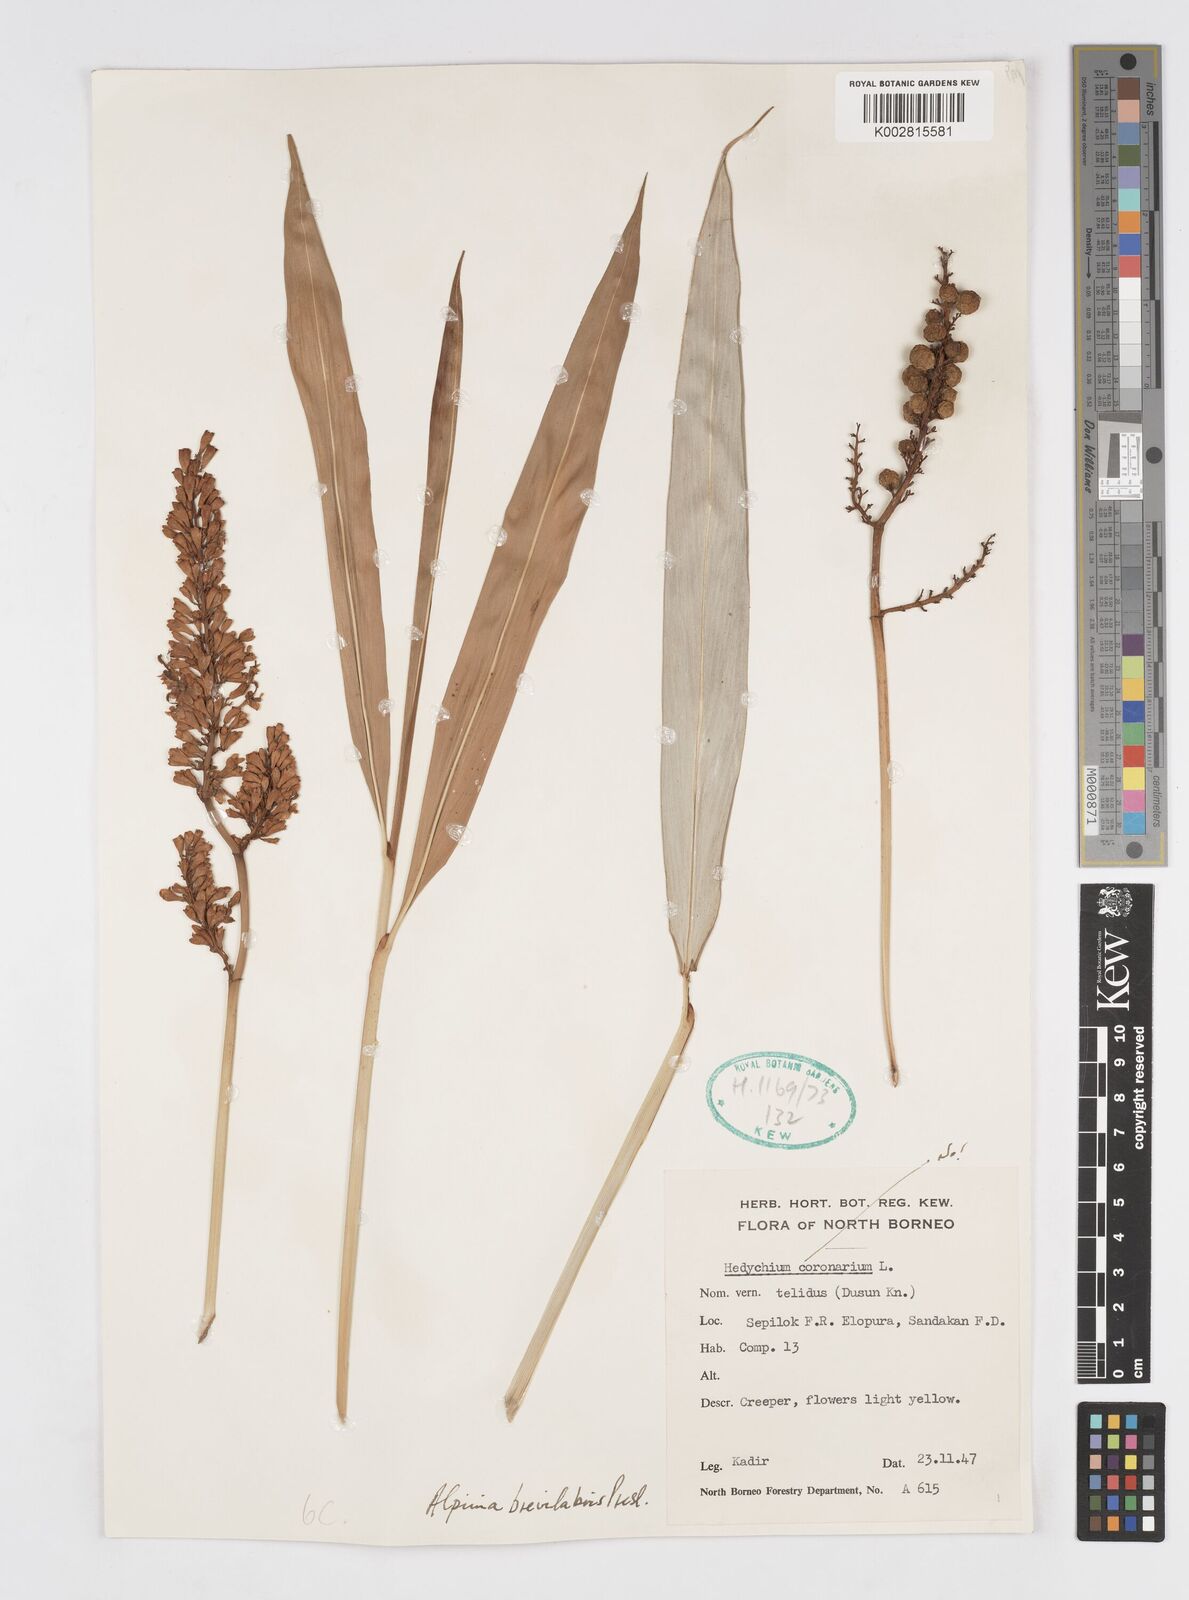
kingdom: Plantae
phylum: Tracheophyta
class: Liliopsida
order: Zingiberales
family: Zingiberaceae
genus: Alpinia
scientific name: Alpinia brevilabris
